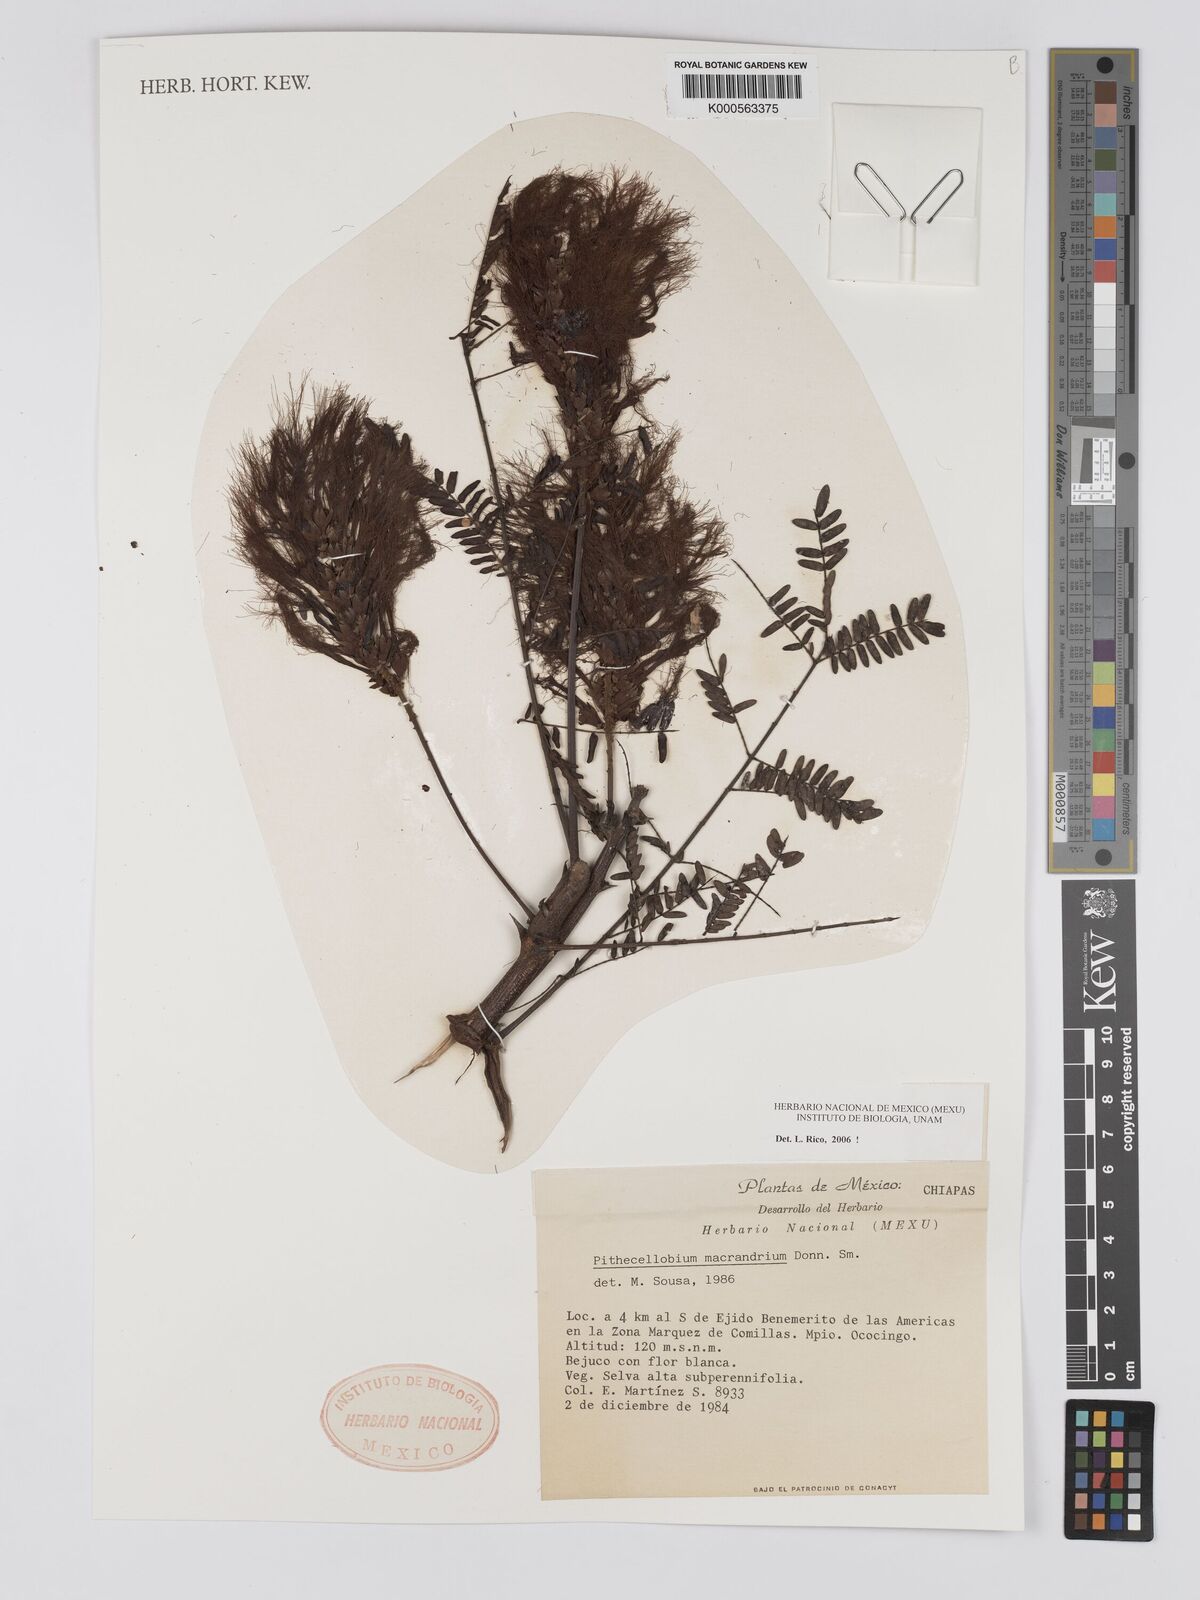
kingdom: Plantae
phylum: Tracheophyta
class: Magnoliopsida
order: Fabales
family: Fabaceae
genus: Pithecellobium
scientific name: Pithecellobium macrandrium
